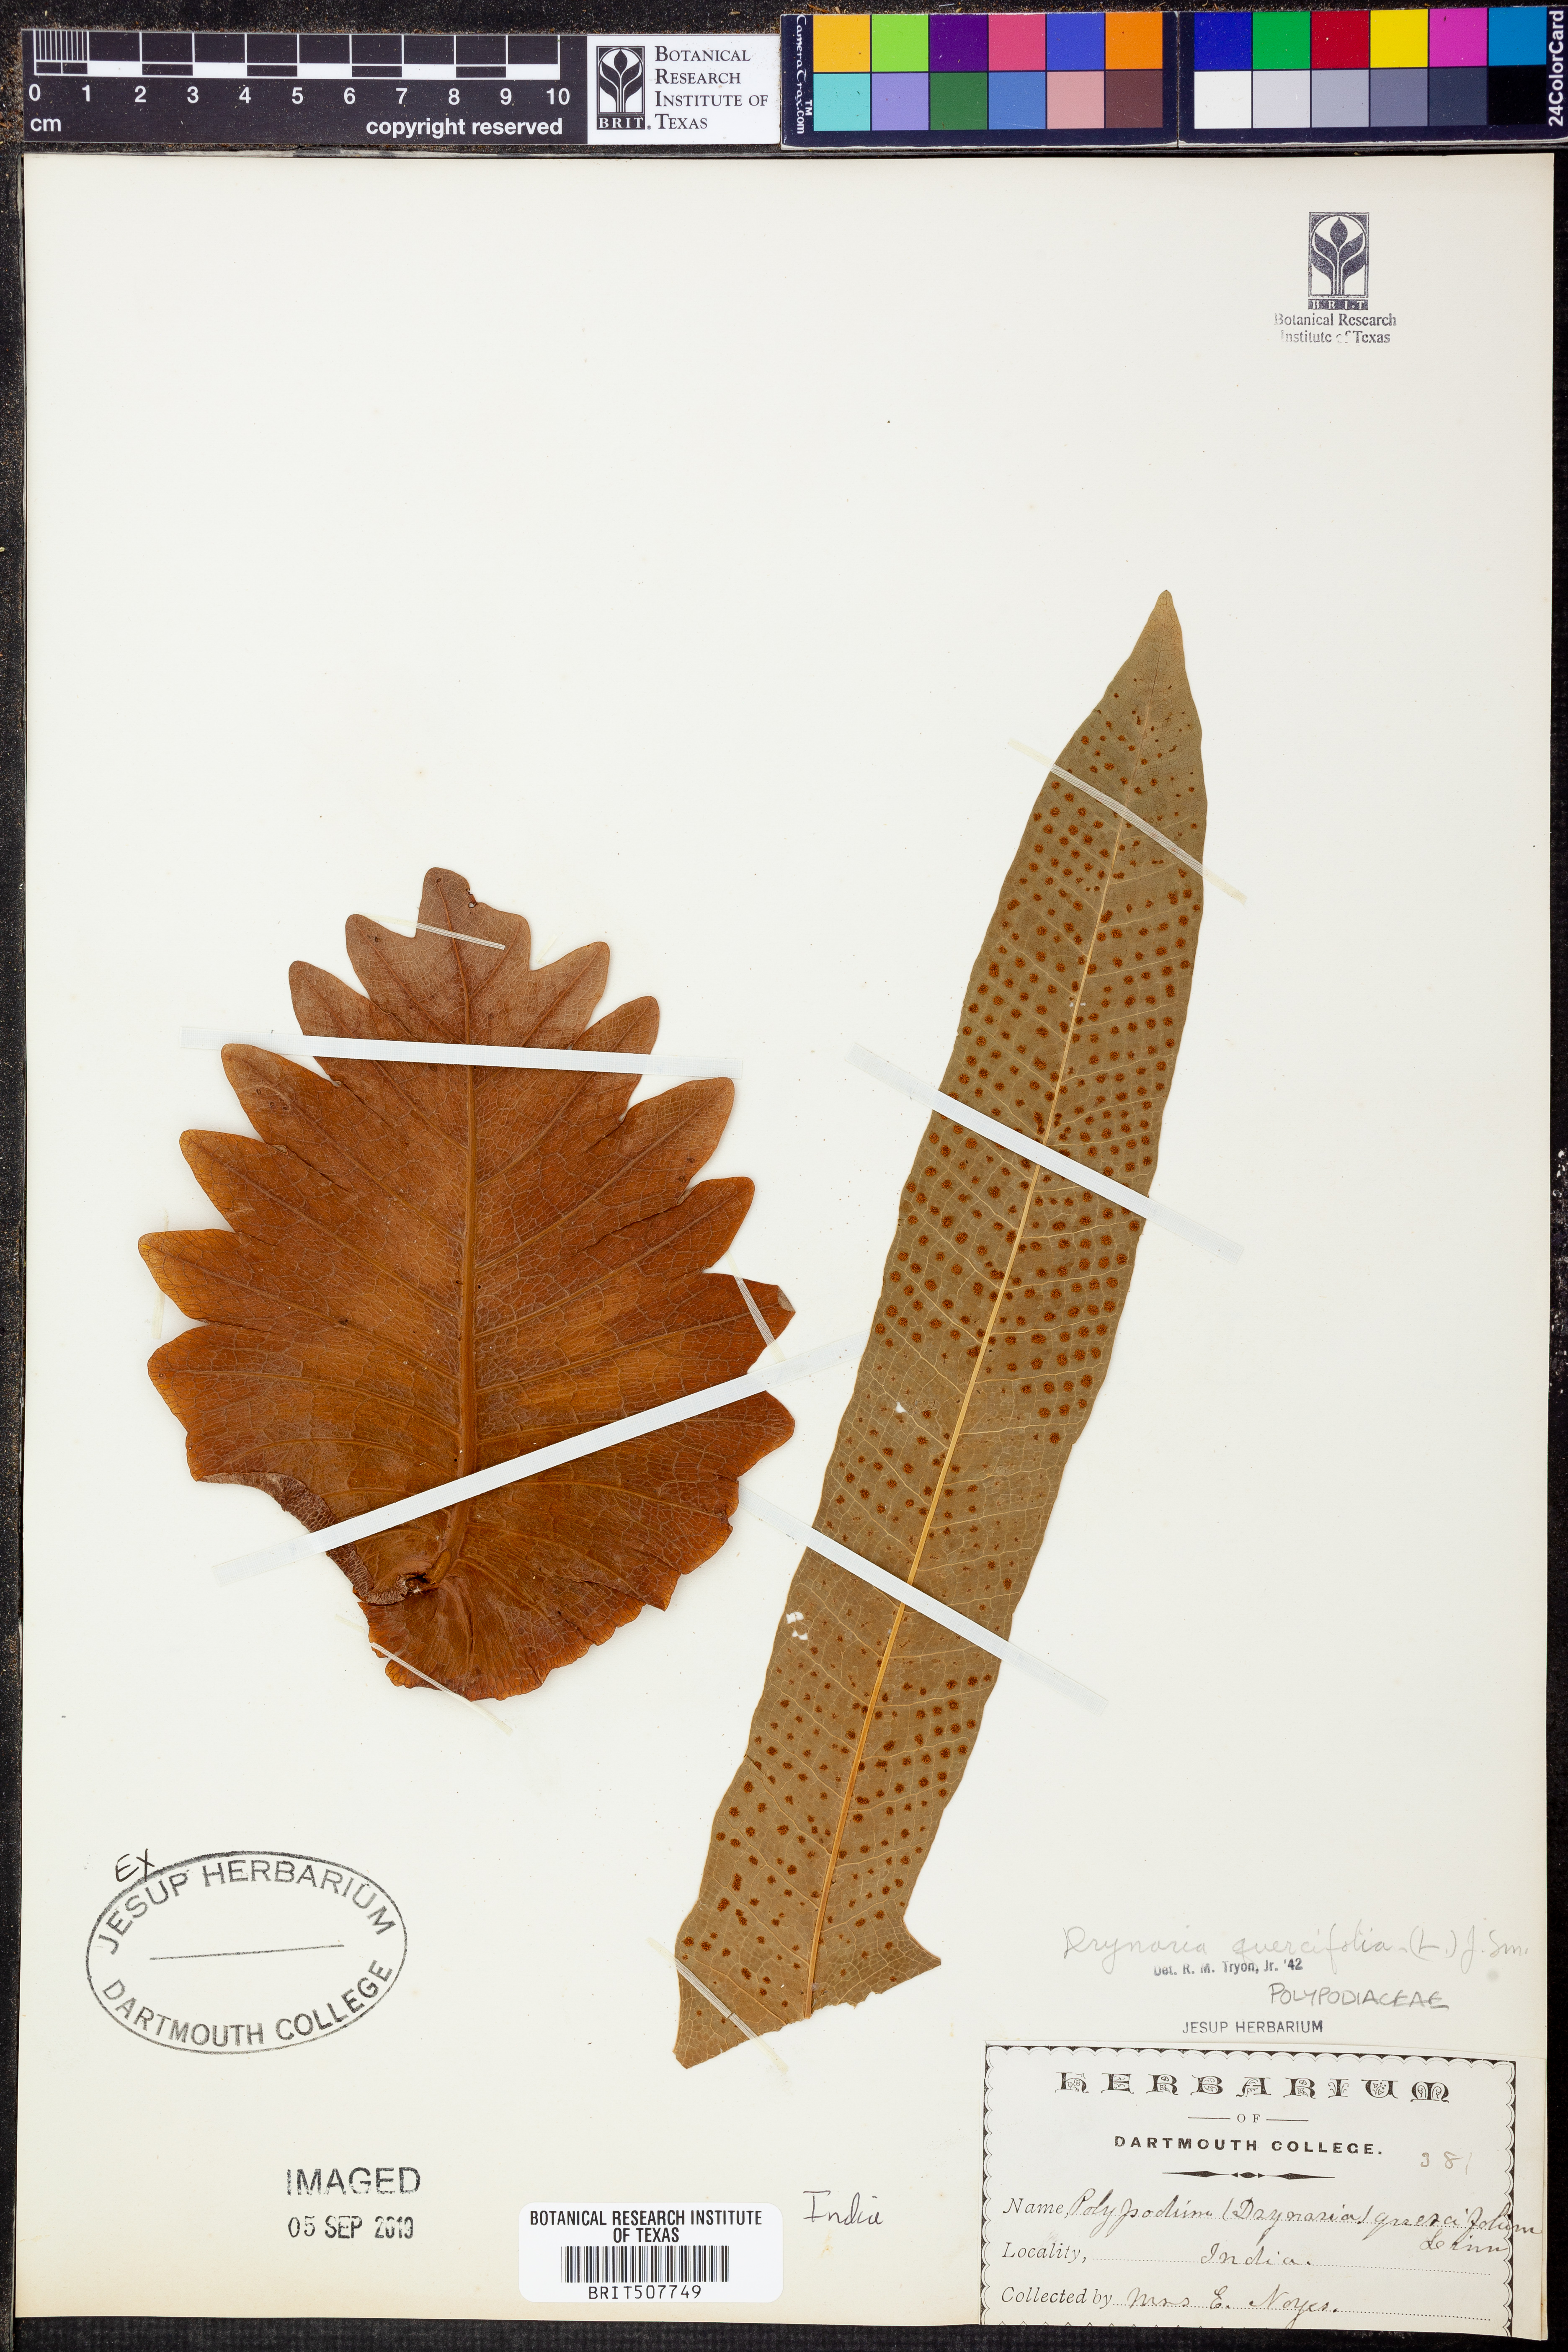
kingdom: Plantae
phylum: Tracheophyta
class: Polypodiopsida
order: Polypodiales
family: Polypodiaceae
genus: Drynaria
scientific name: Drynaria quercifolia
